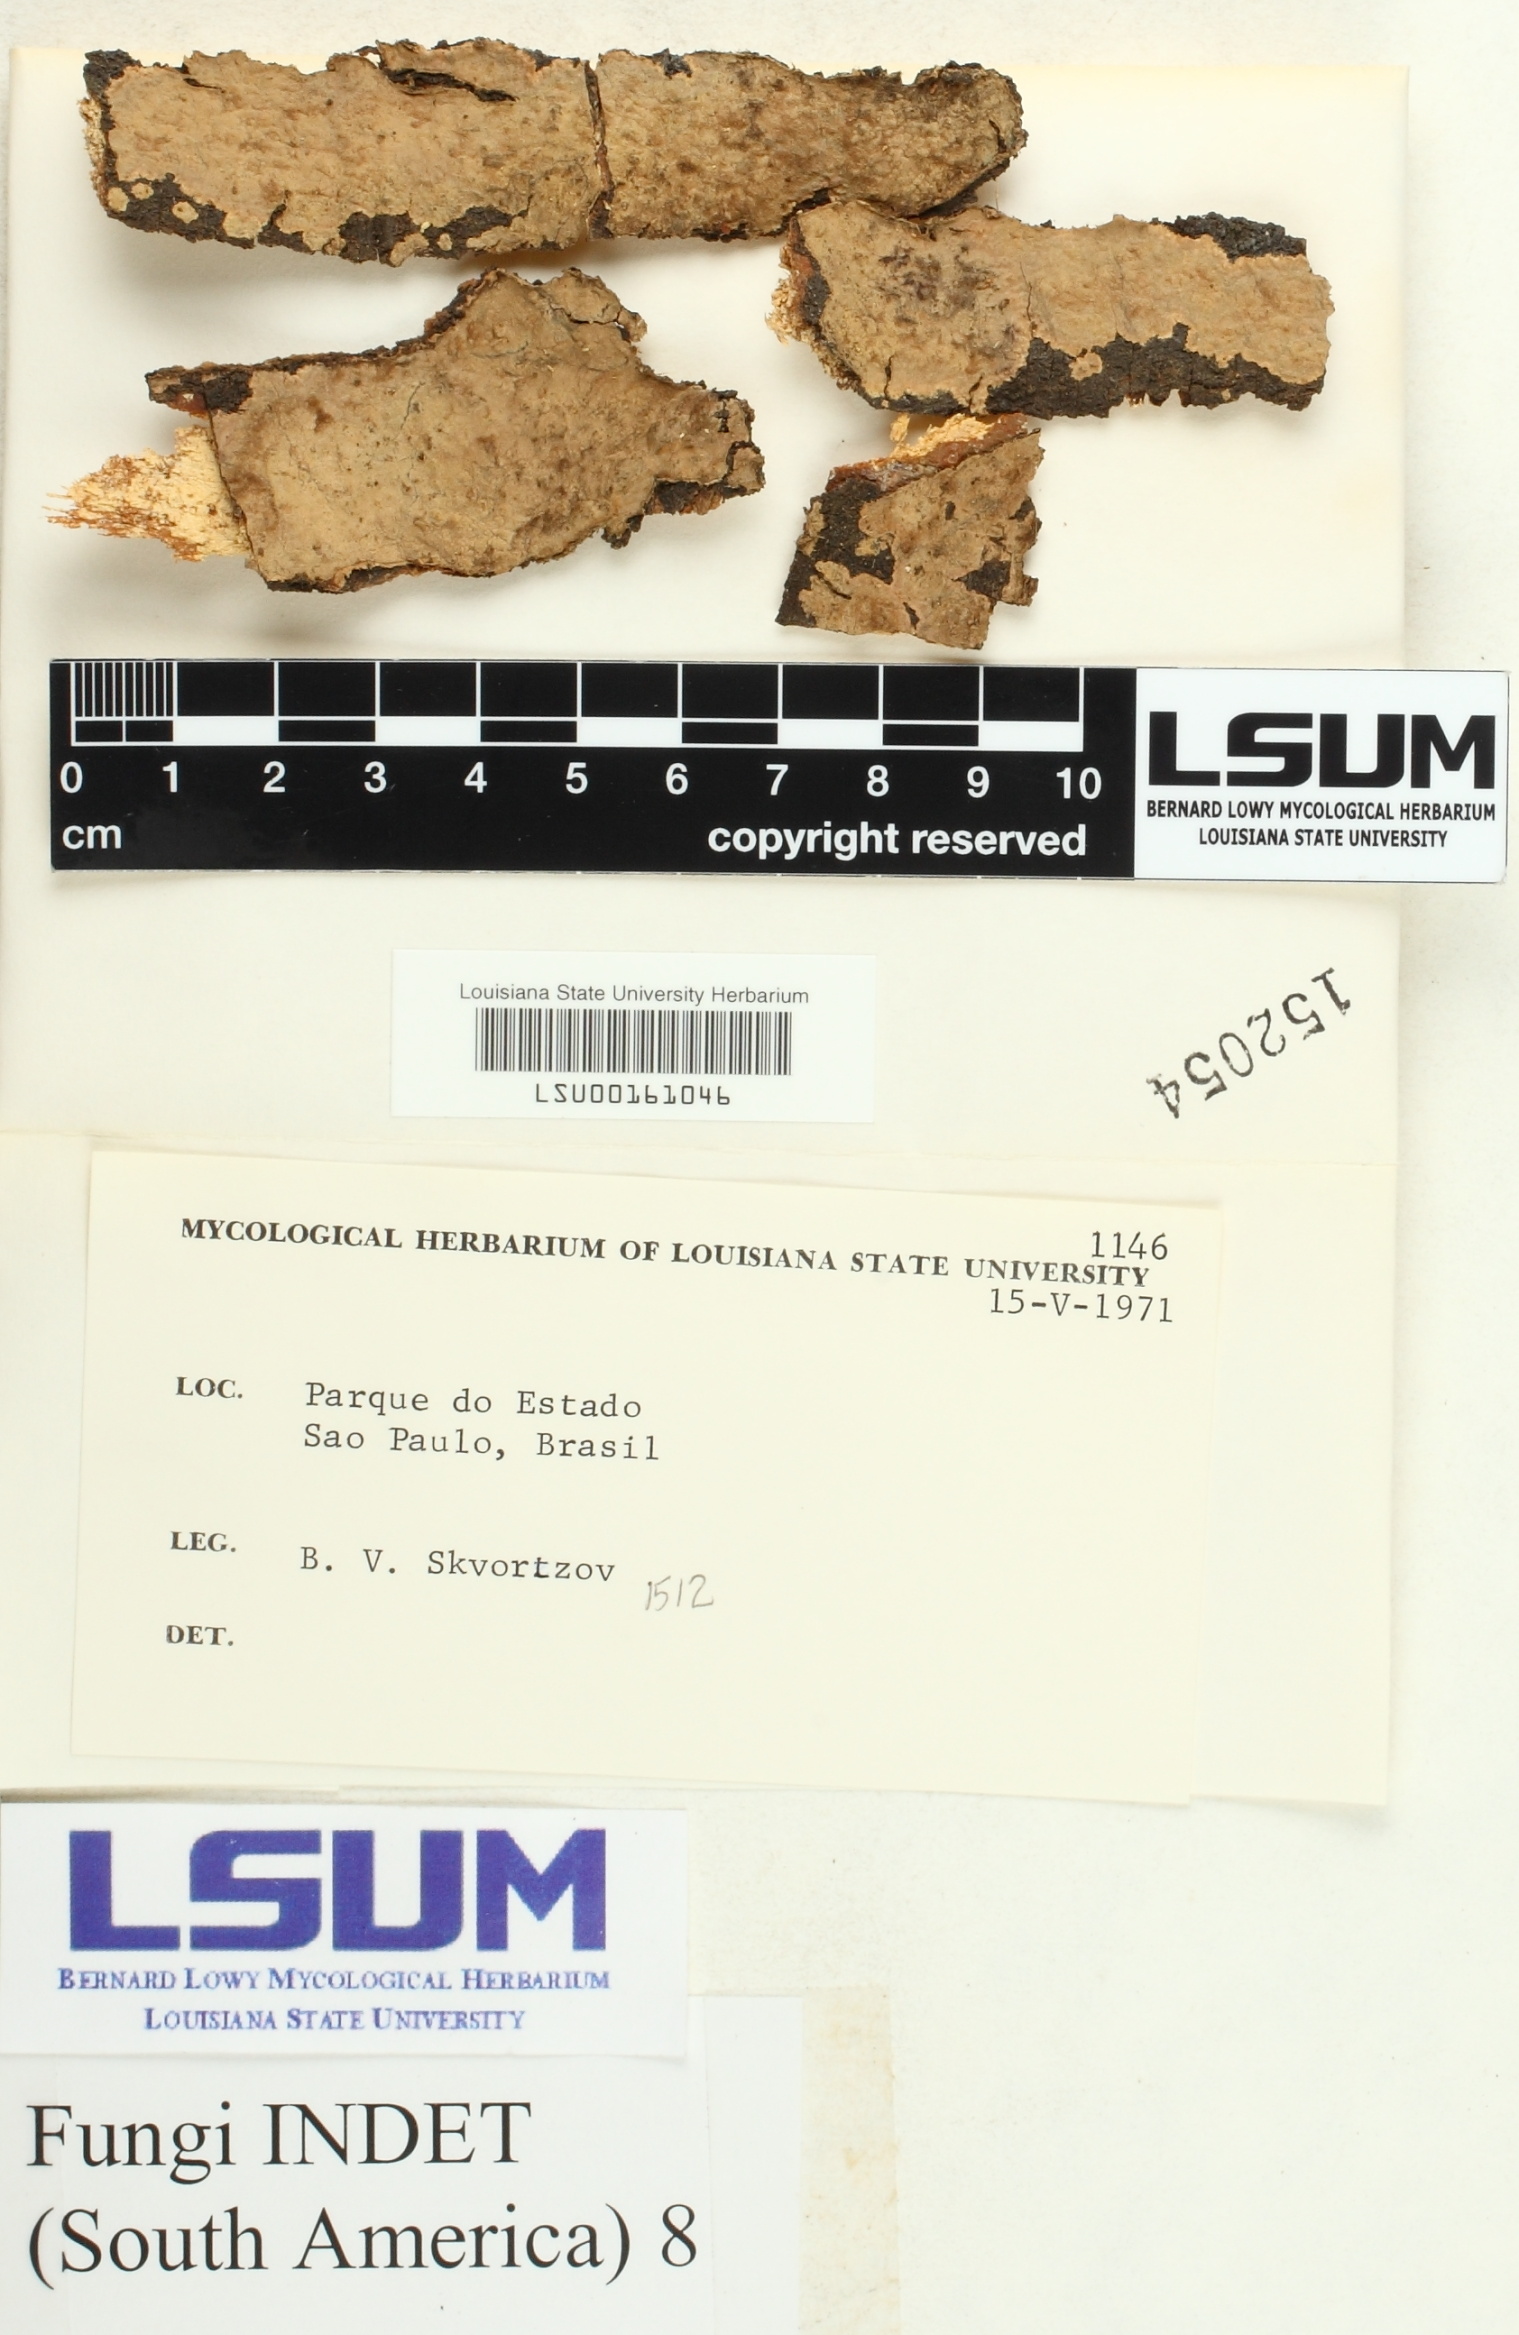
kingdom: Fungi
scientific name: Fungi
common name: Fungi
